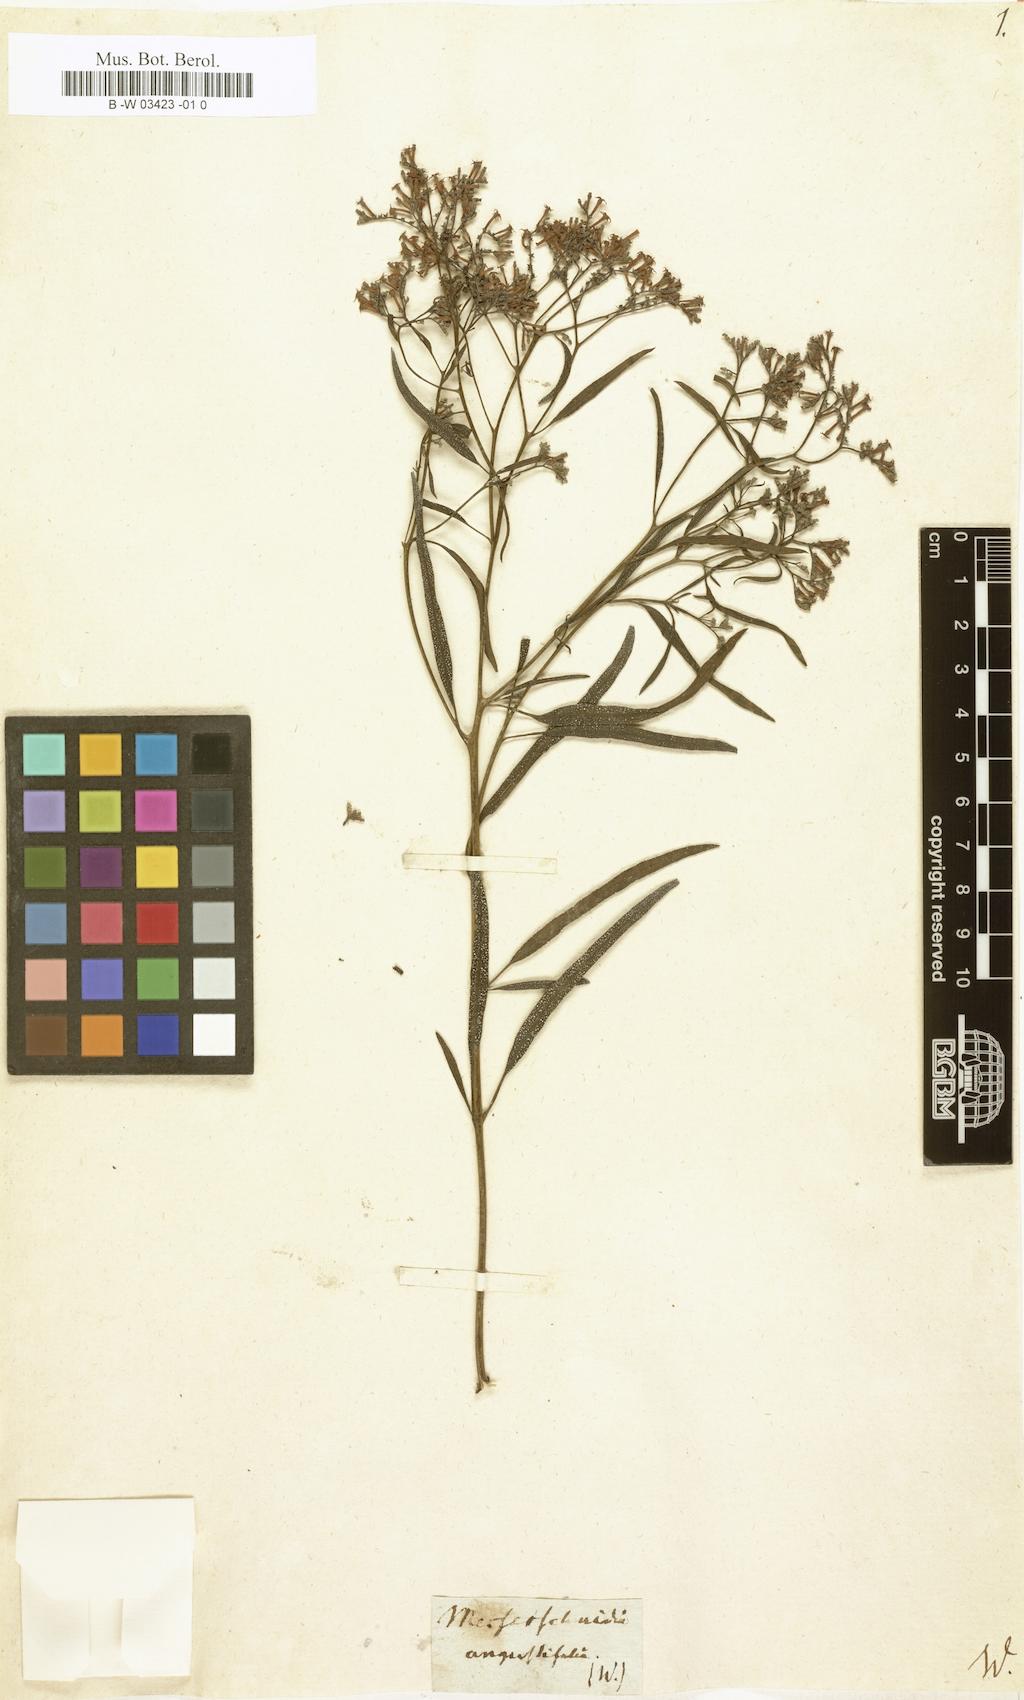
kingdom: Plantae
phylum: Tracheophyta
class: Magnoliopsida
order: Boraginales
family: Boraginaceae
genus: Messerschmidia
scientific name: Messerschmidia angustifolia
